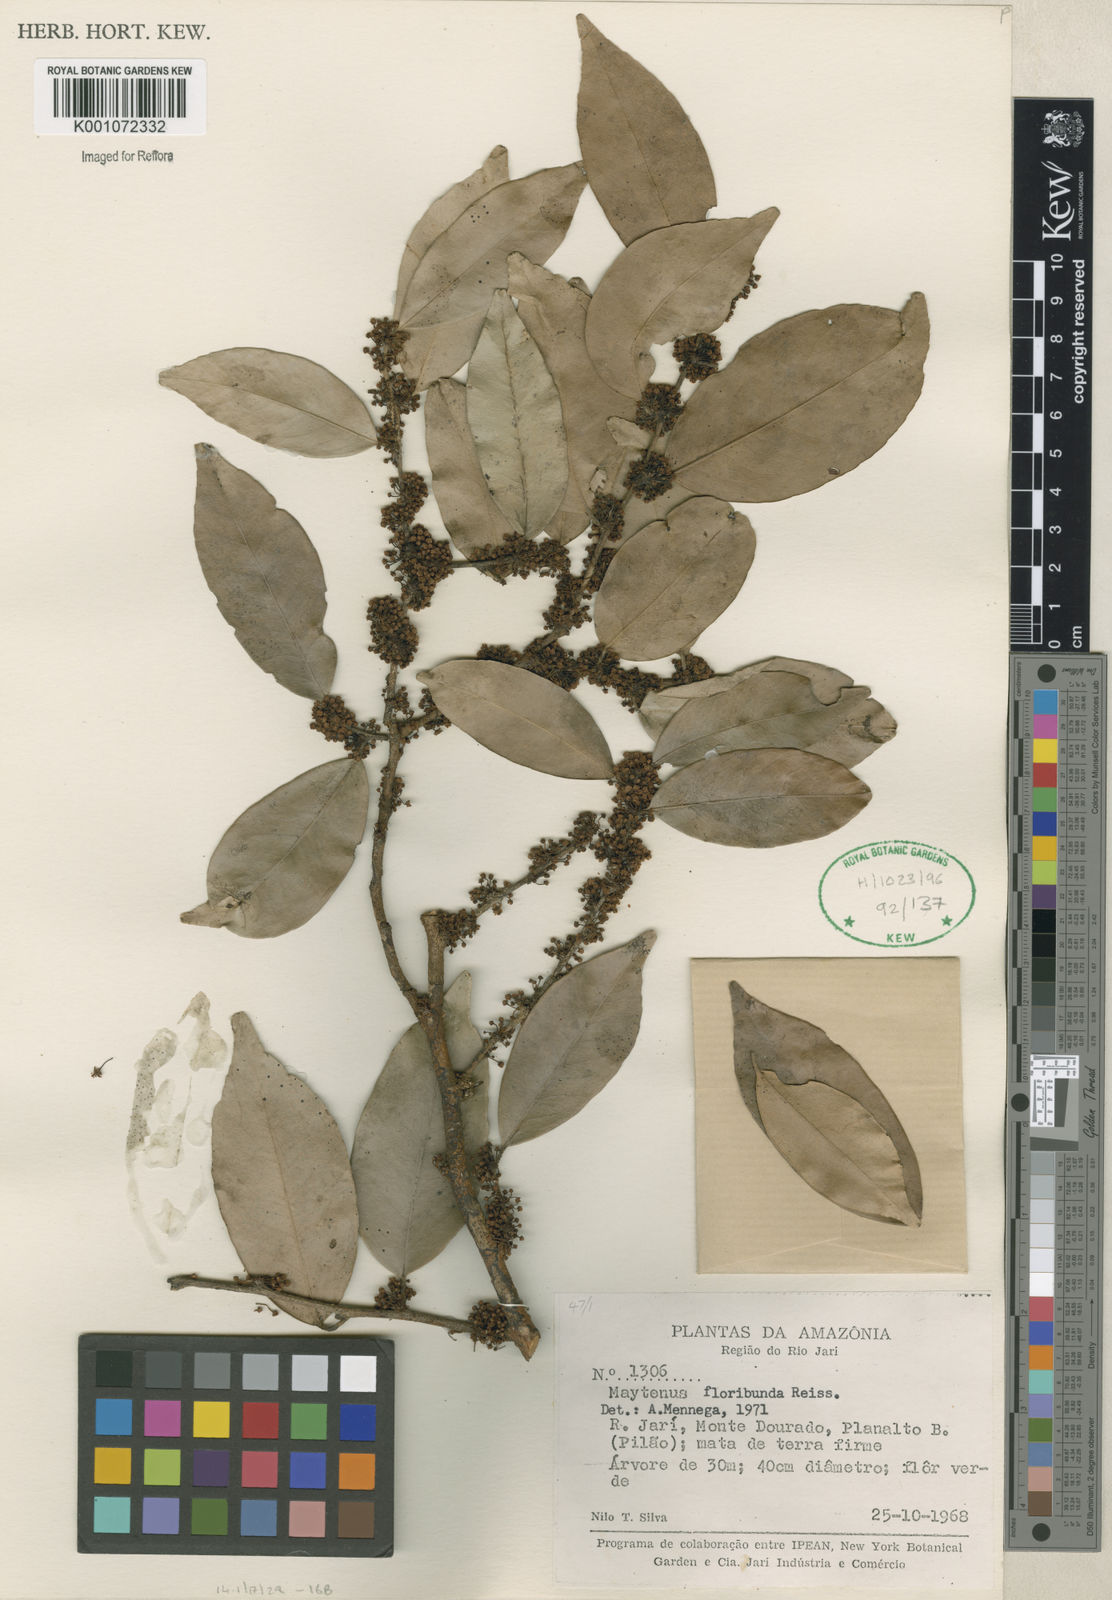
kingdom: Plantae
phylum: Tracheophyta
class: Magnoliopsida
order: Celastrales
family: Celastraceae
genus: Monteverdia
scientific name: Monteverdia floribunda
